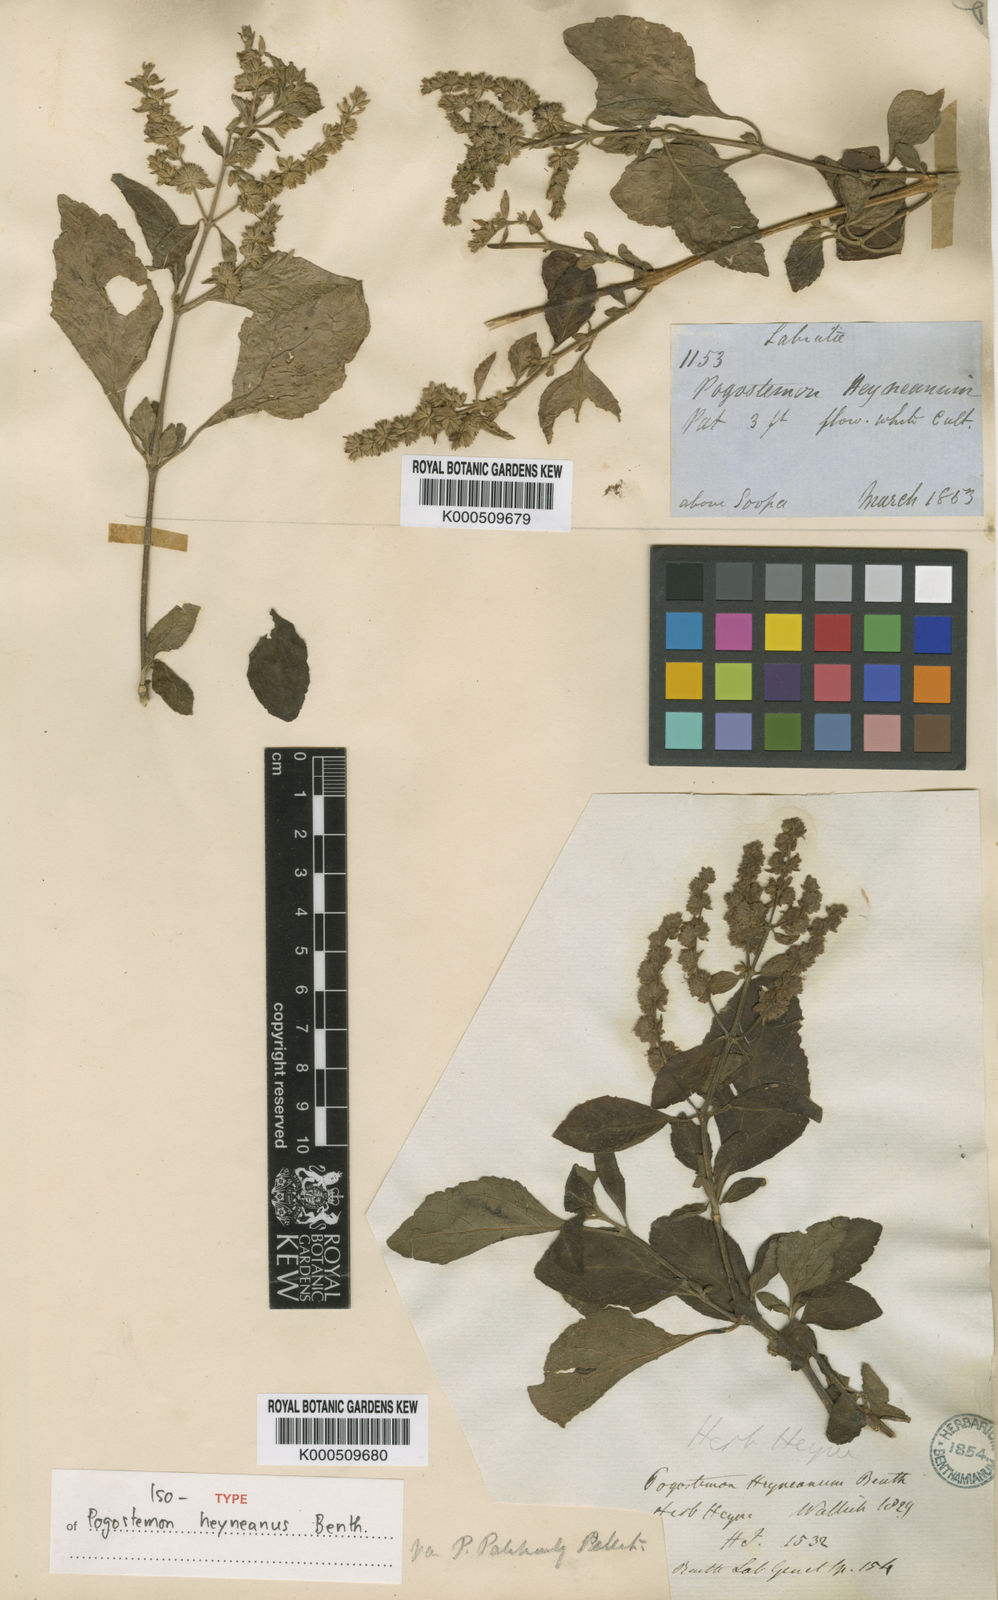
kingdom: Plantae
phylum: Tracheophyta
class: Magnoliopsida
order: Lamiales
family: Lamiaceae
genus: Pogostemon
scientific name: Pogostemon heyneanus
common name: Indian patchouli
